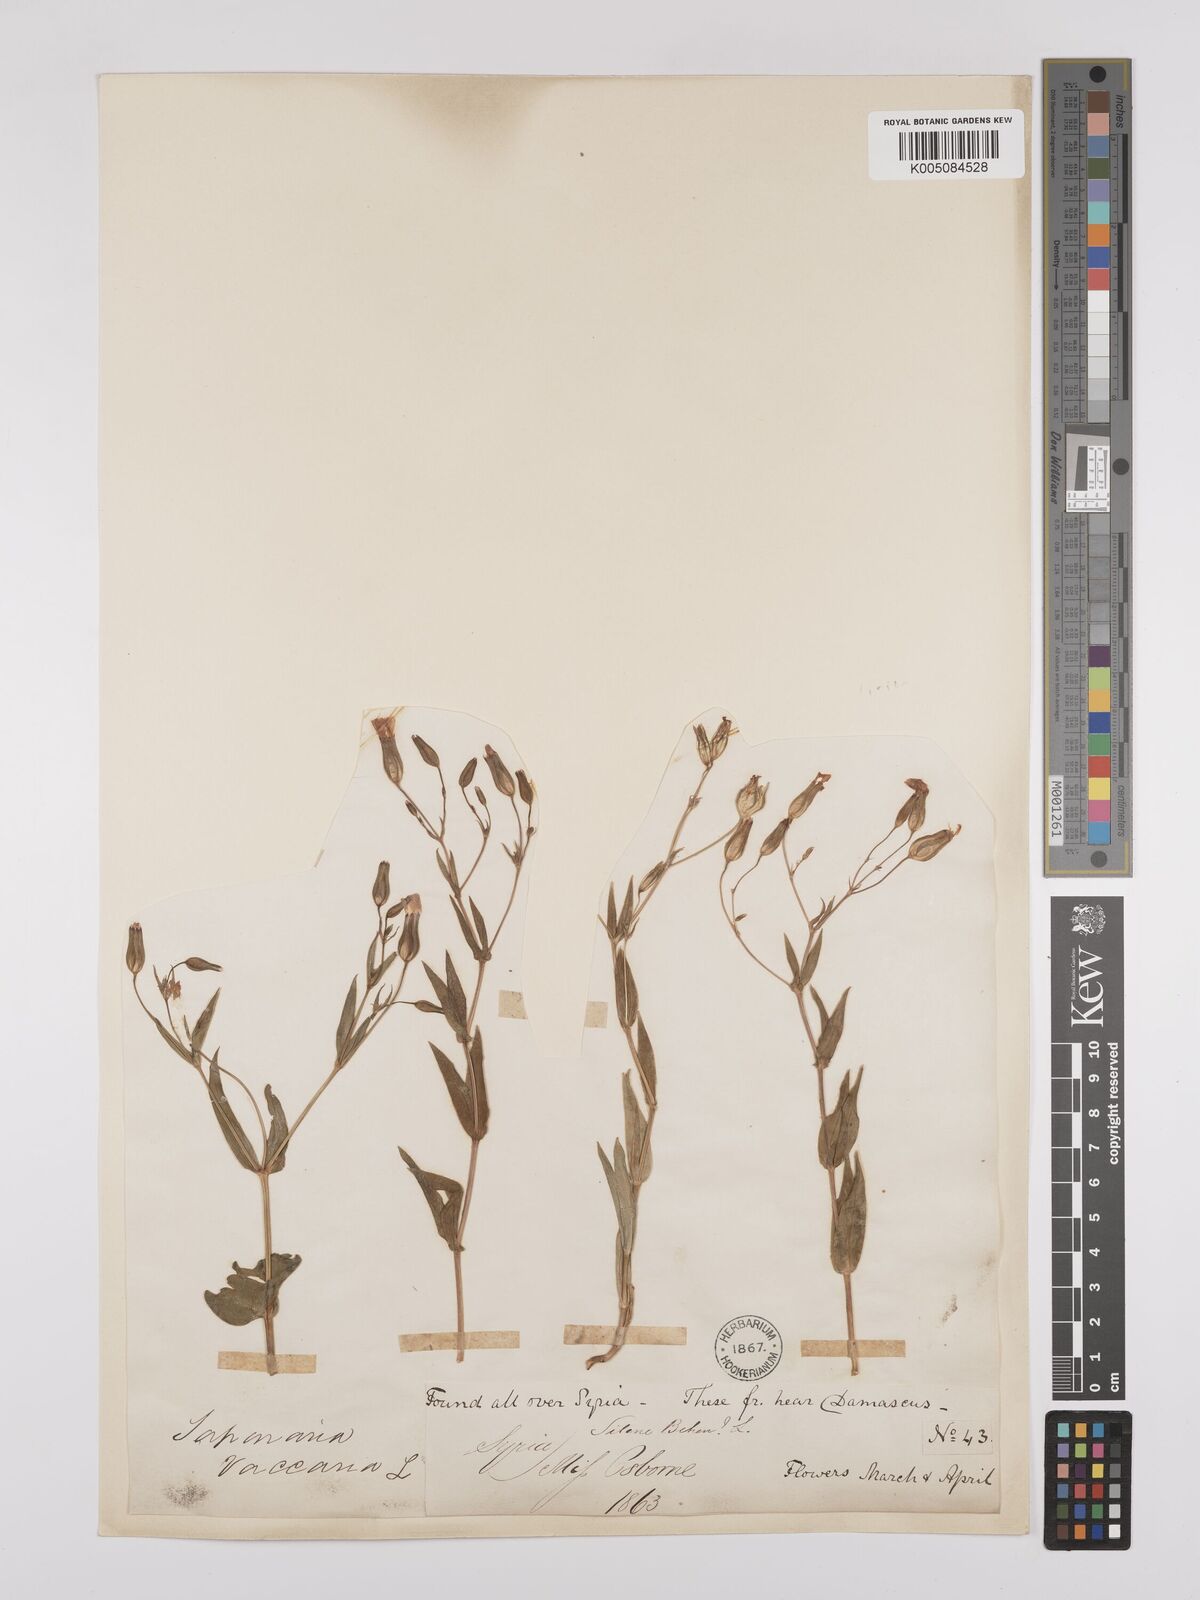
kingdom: Plantae
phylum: Tracheophyta
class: Magnoliopsida
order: Caryophyllales
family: Caryophyllaceae
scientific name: Caryophyllaceae
